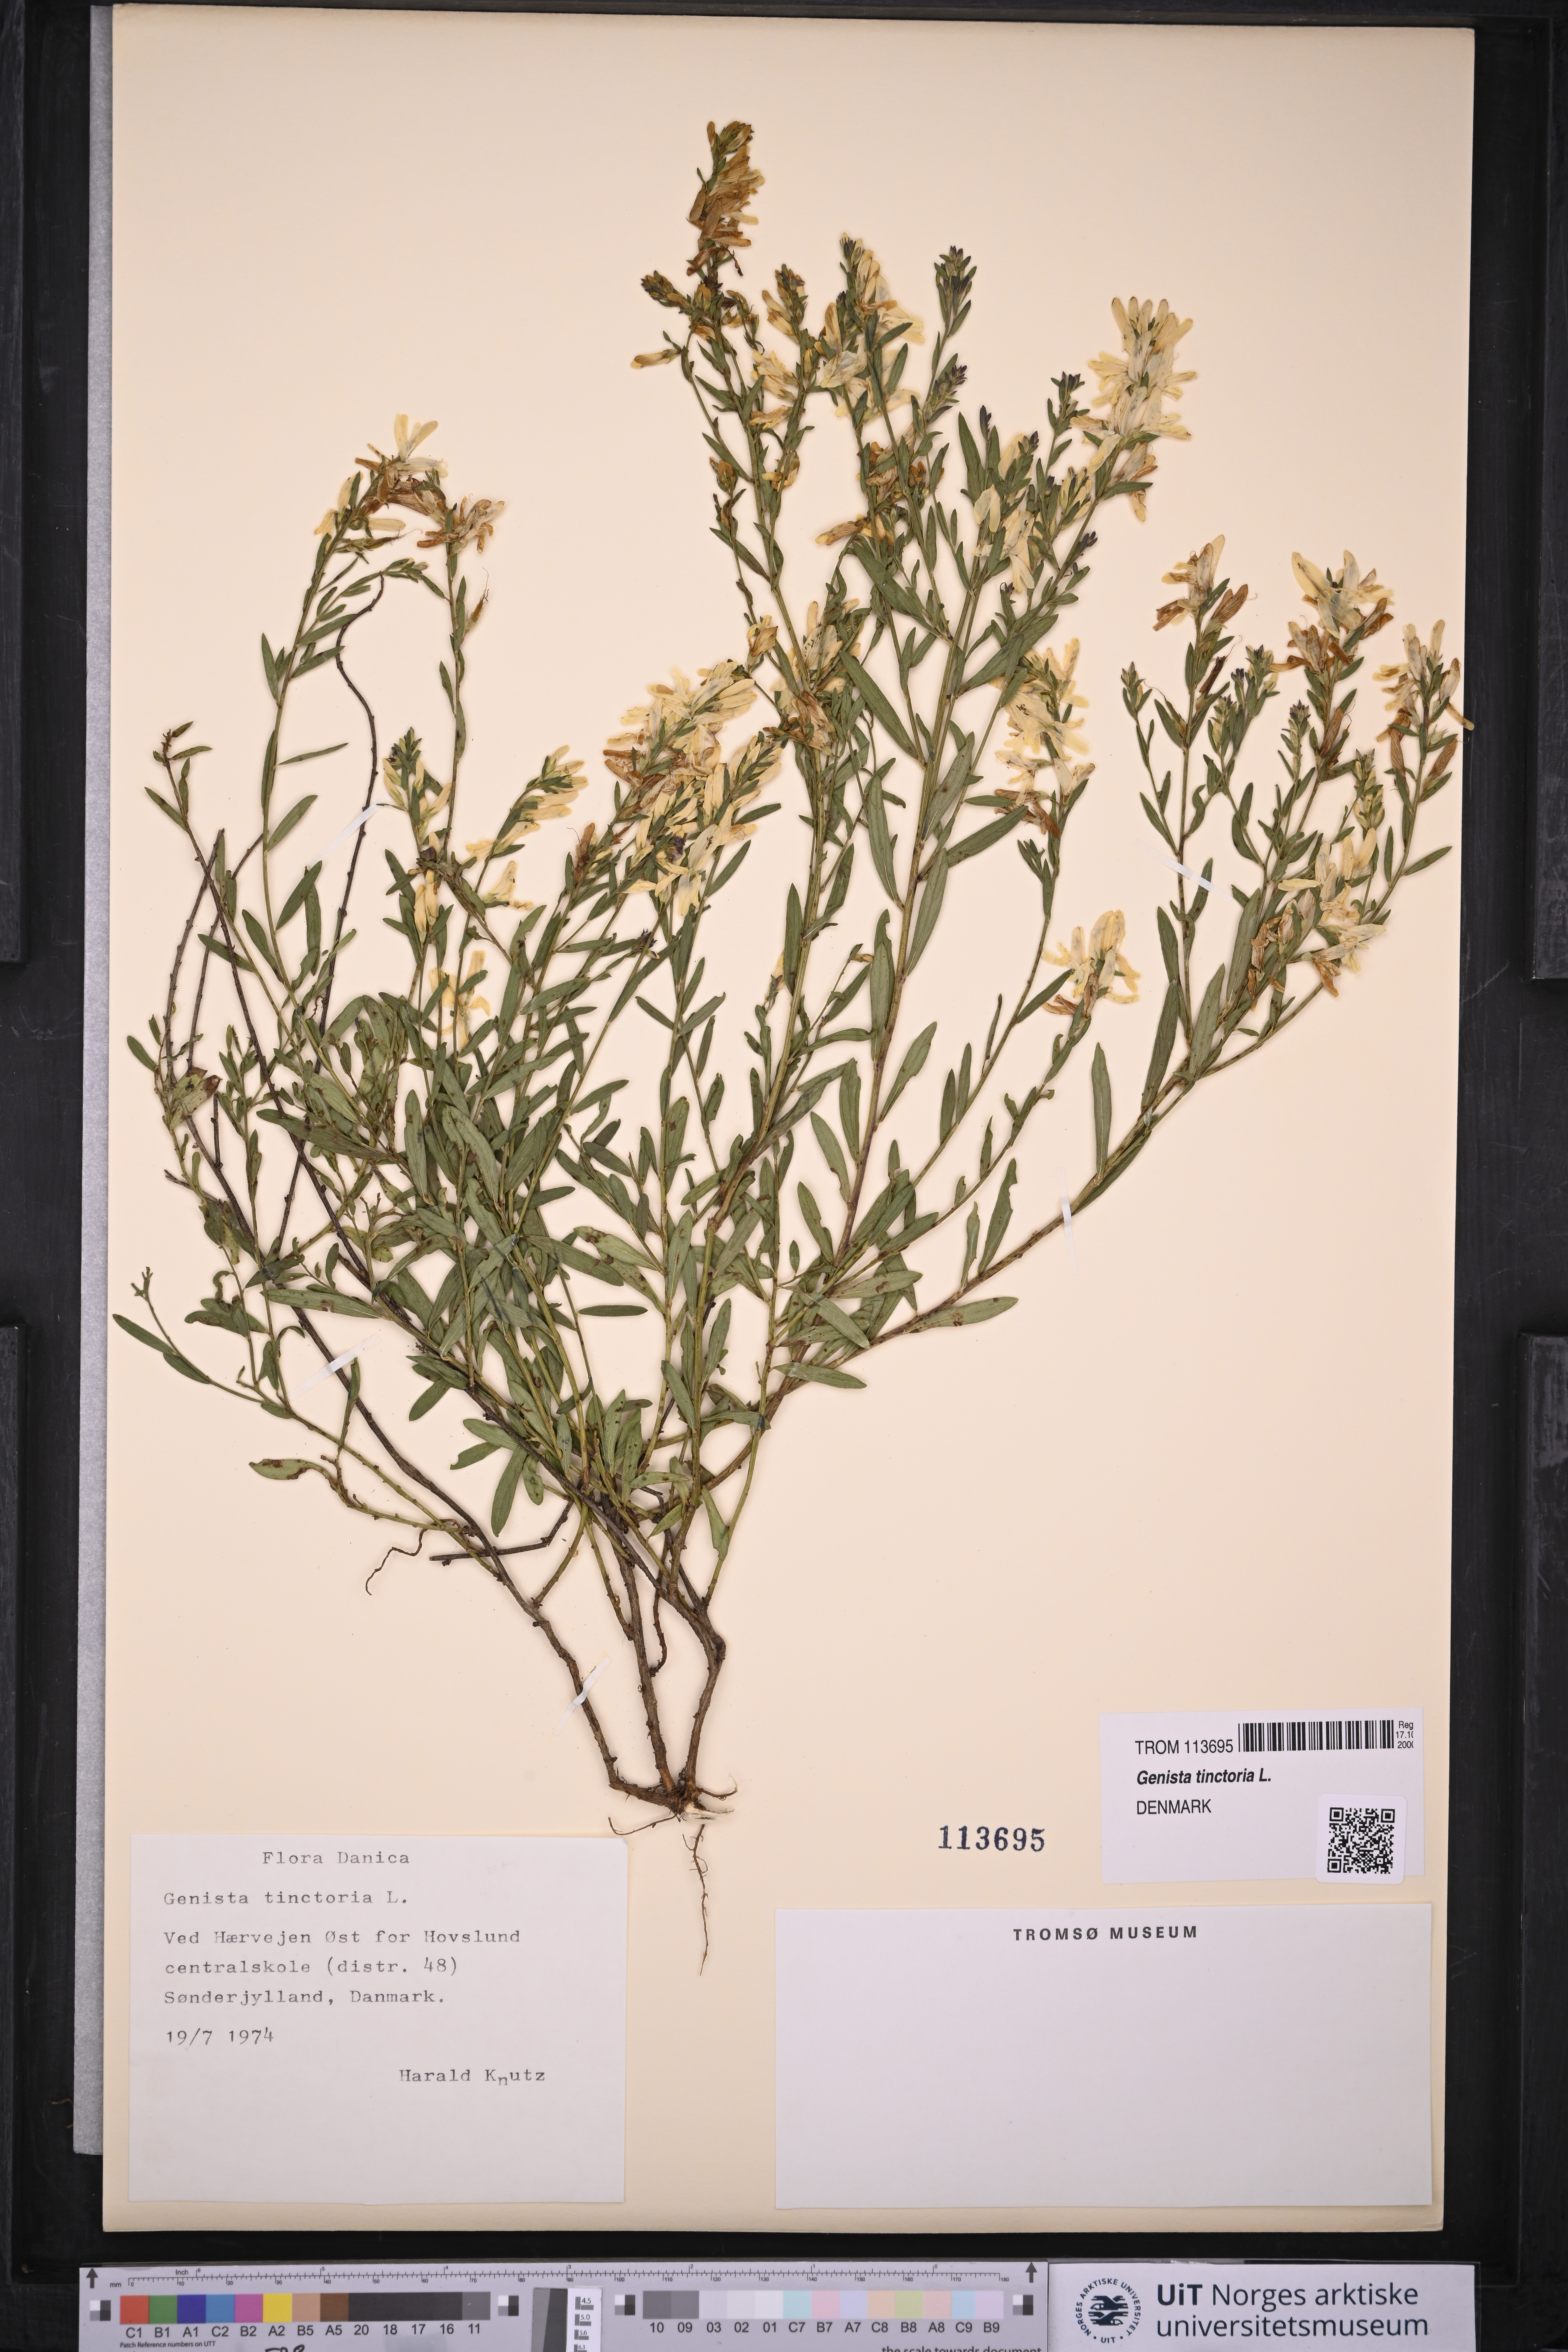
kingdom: Plantae
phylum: Tracheophyta
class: Magnoliopsida
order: Fabales
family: Fabaceae
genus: Genista
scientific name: Genista tinctoria
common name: Dyer's greenweed
